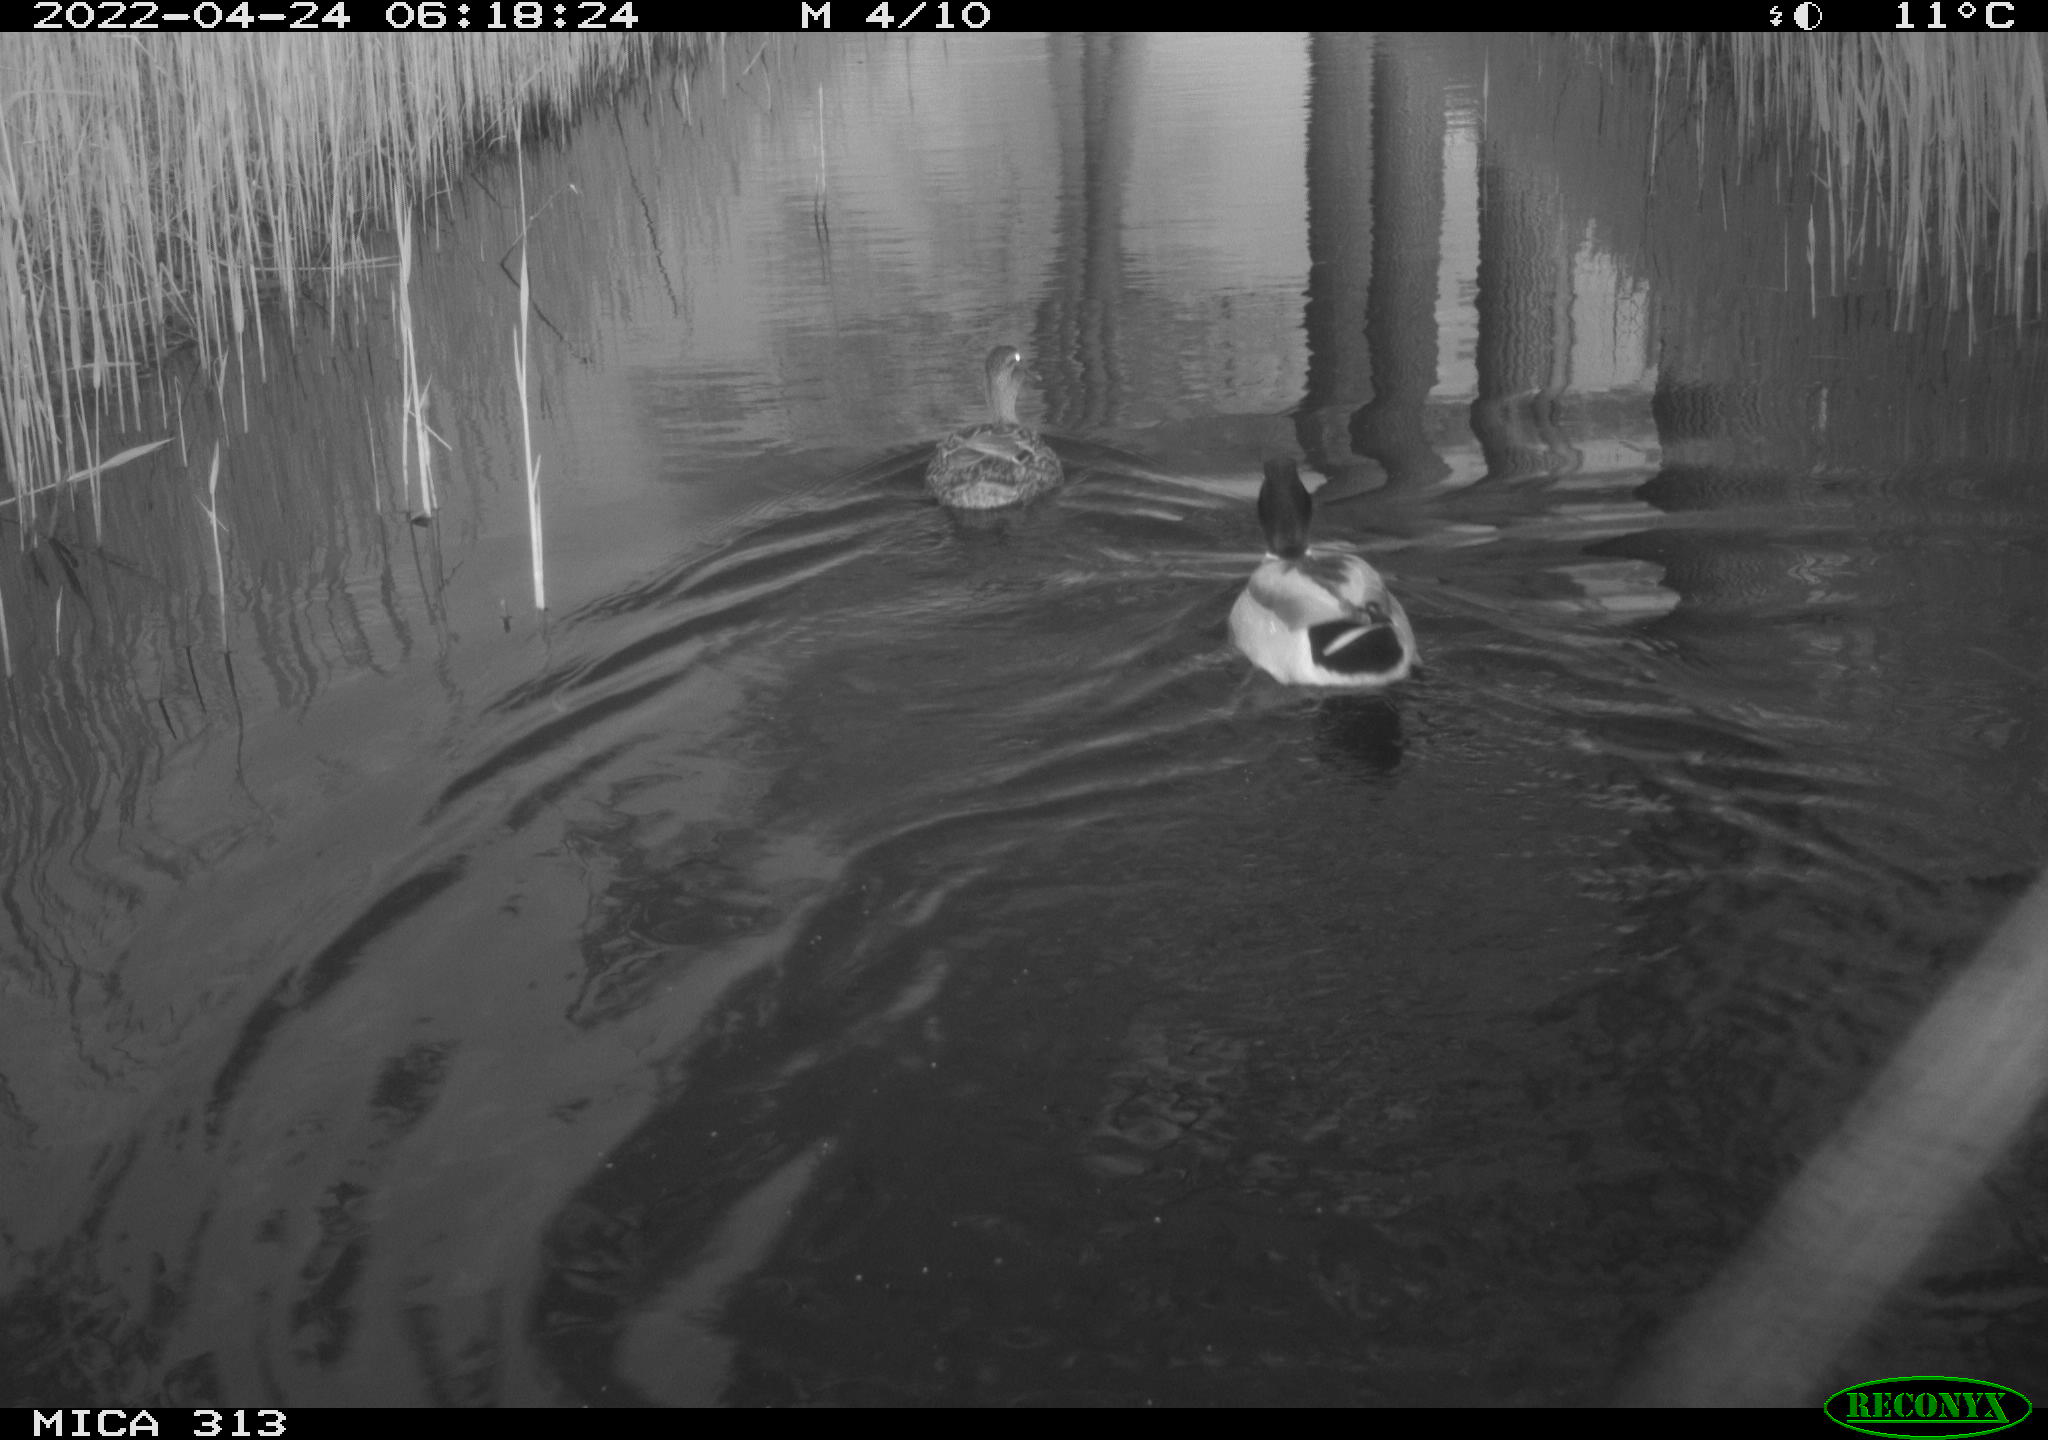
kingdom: Animalia
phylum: Chordata
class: Aves
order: Anseriformes
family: Anatidae
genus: Anas
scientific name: Anas platyrhynchos
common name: Mallard
